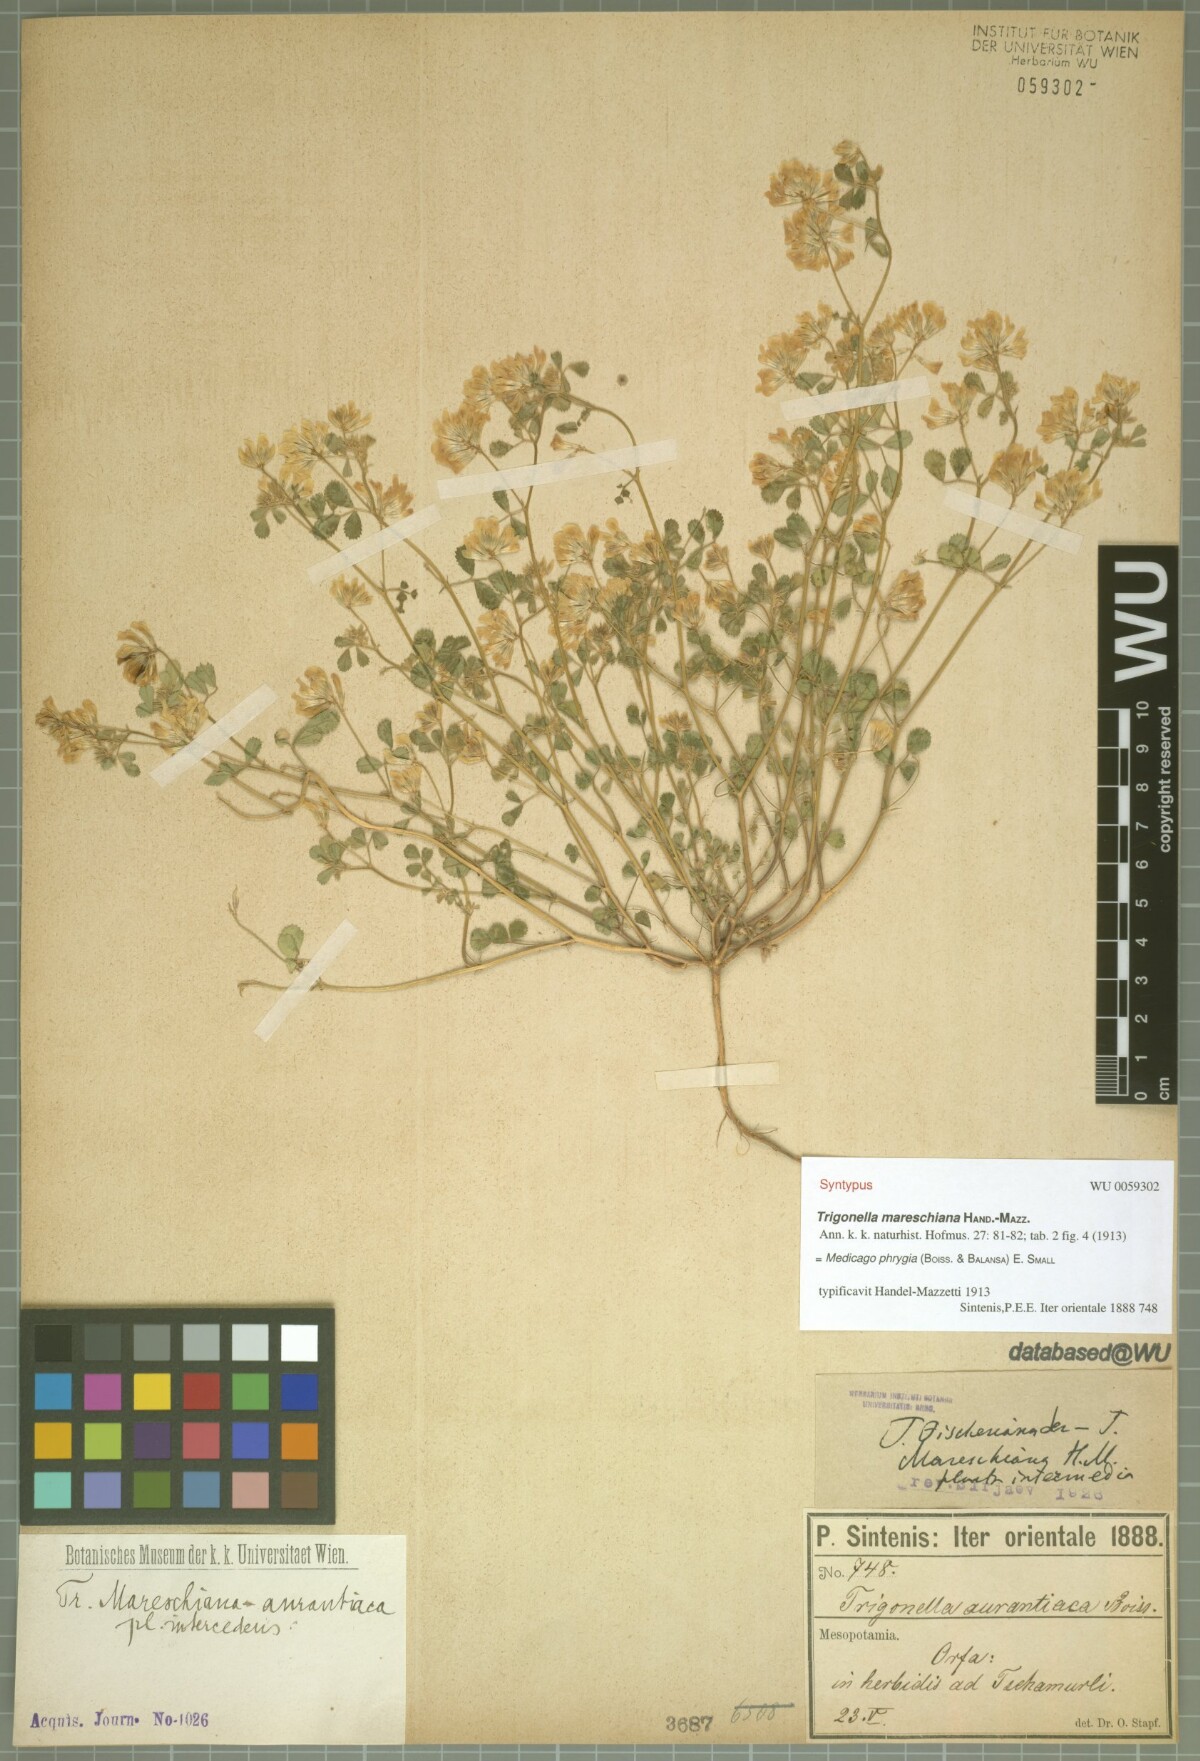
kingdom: Plantae
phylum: Tracheophyta
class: Magnoliopsida
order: Fabales
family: Fabaceae
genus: Medicago
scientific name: Medicago phrygia
